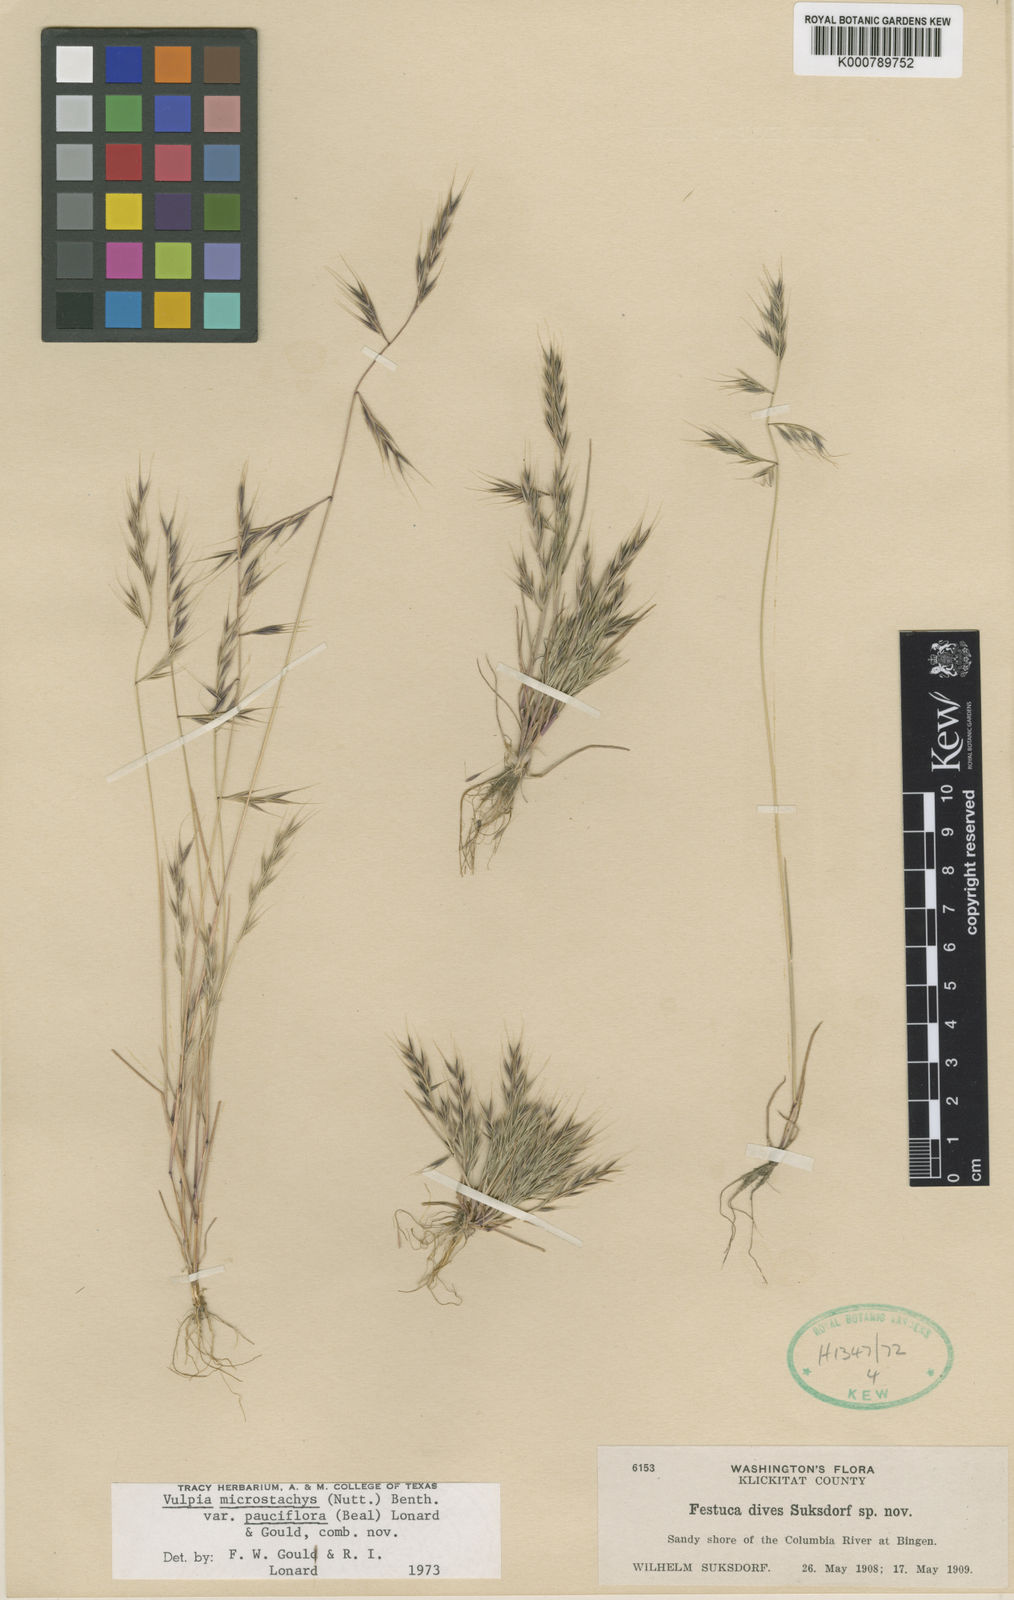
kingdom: Plantae
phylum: Tracheophyta
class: Liliopsida
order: Poales
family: Poaceae
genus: Festuca
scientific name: Festuca microstachys
